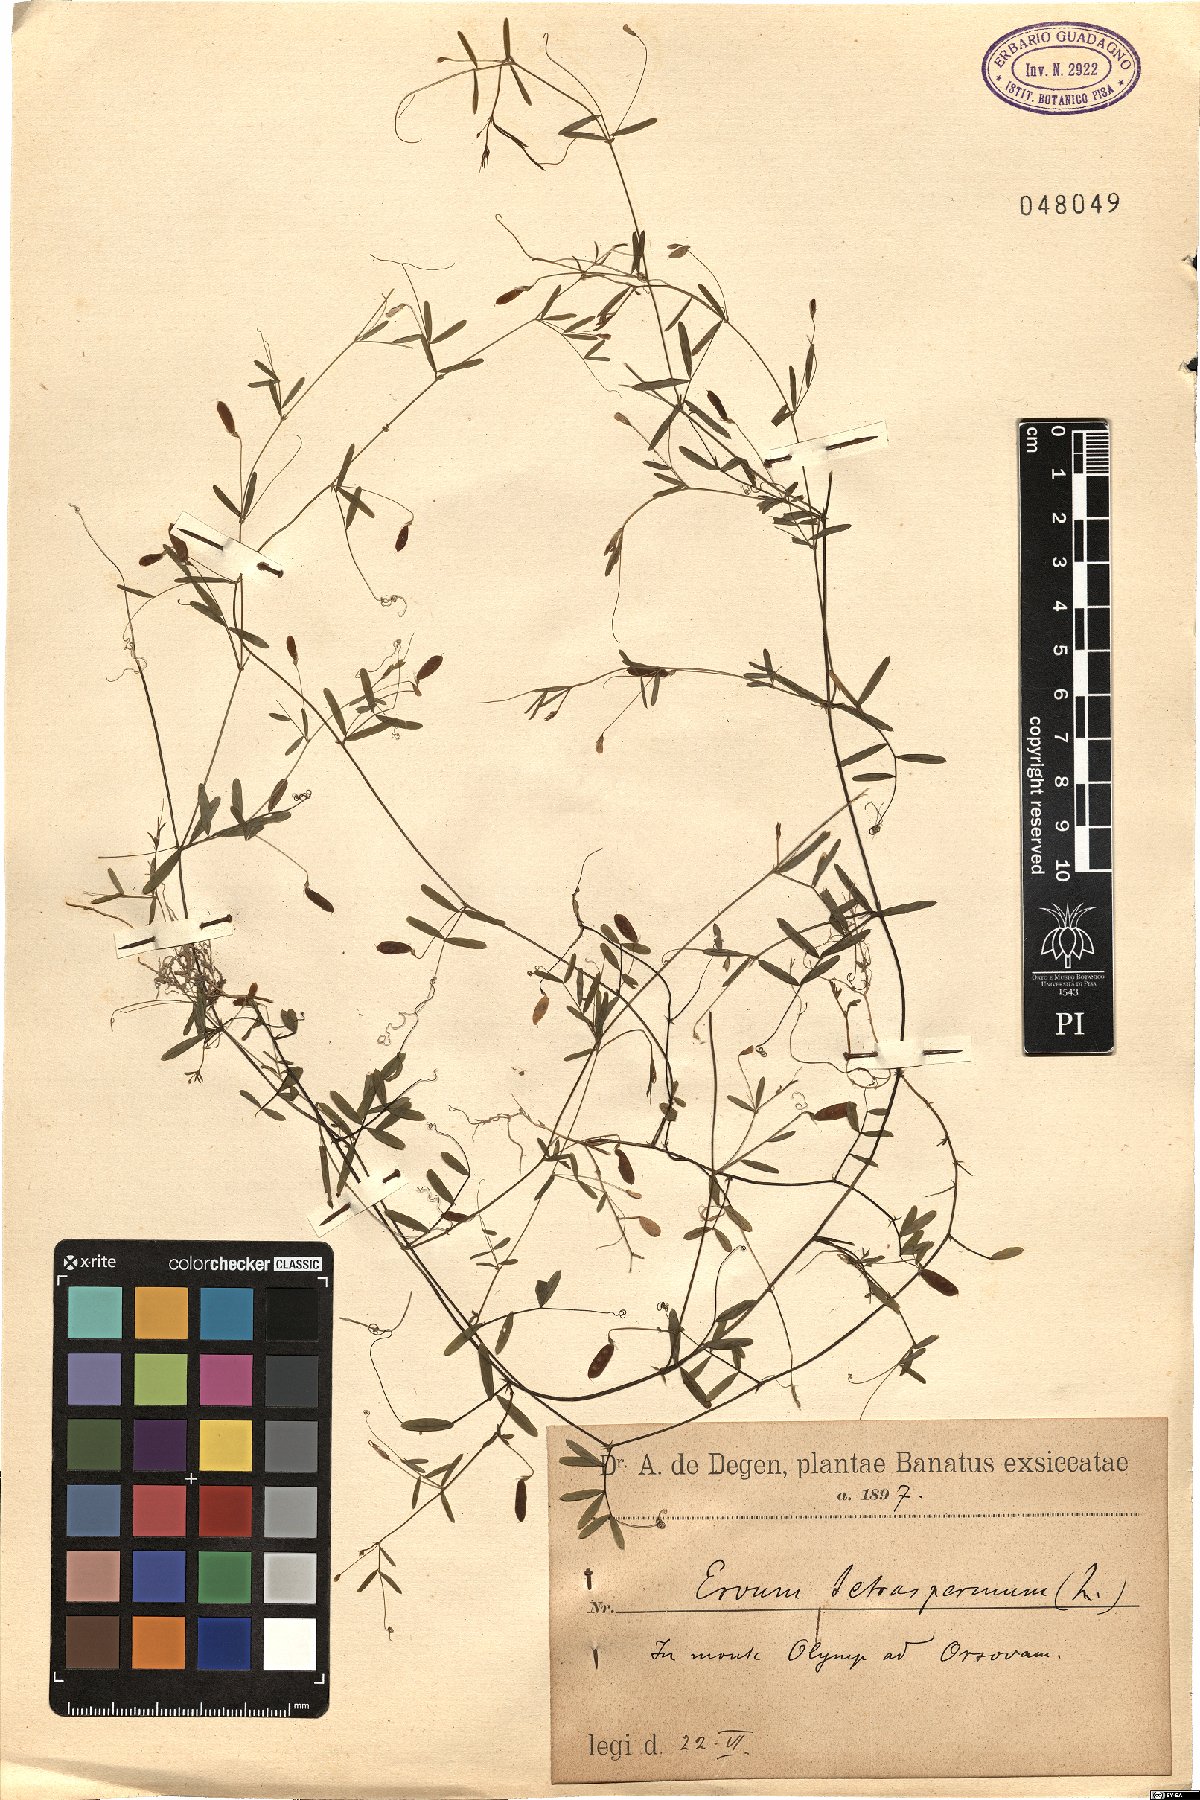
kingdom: Plantae
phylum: Tracheophyta
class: Magnoliopsida
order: Fabales
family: Fabaceae
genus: Vicia
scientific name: Vicia tetrasperma
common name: Smooth tare
